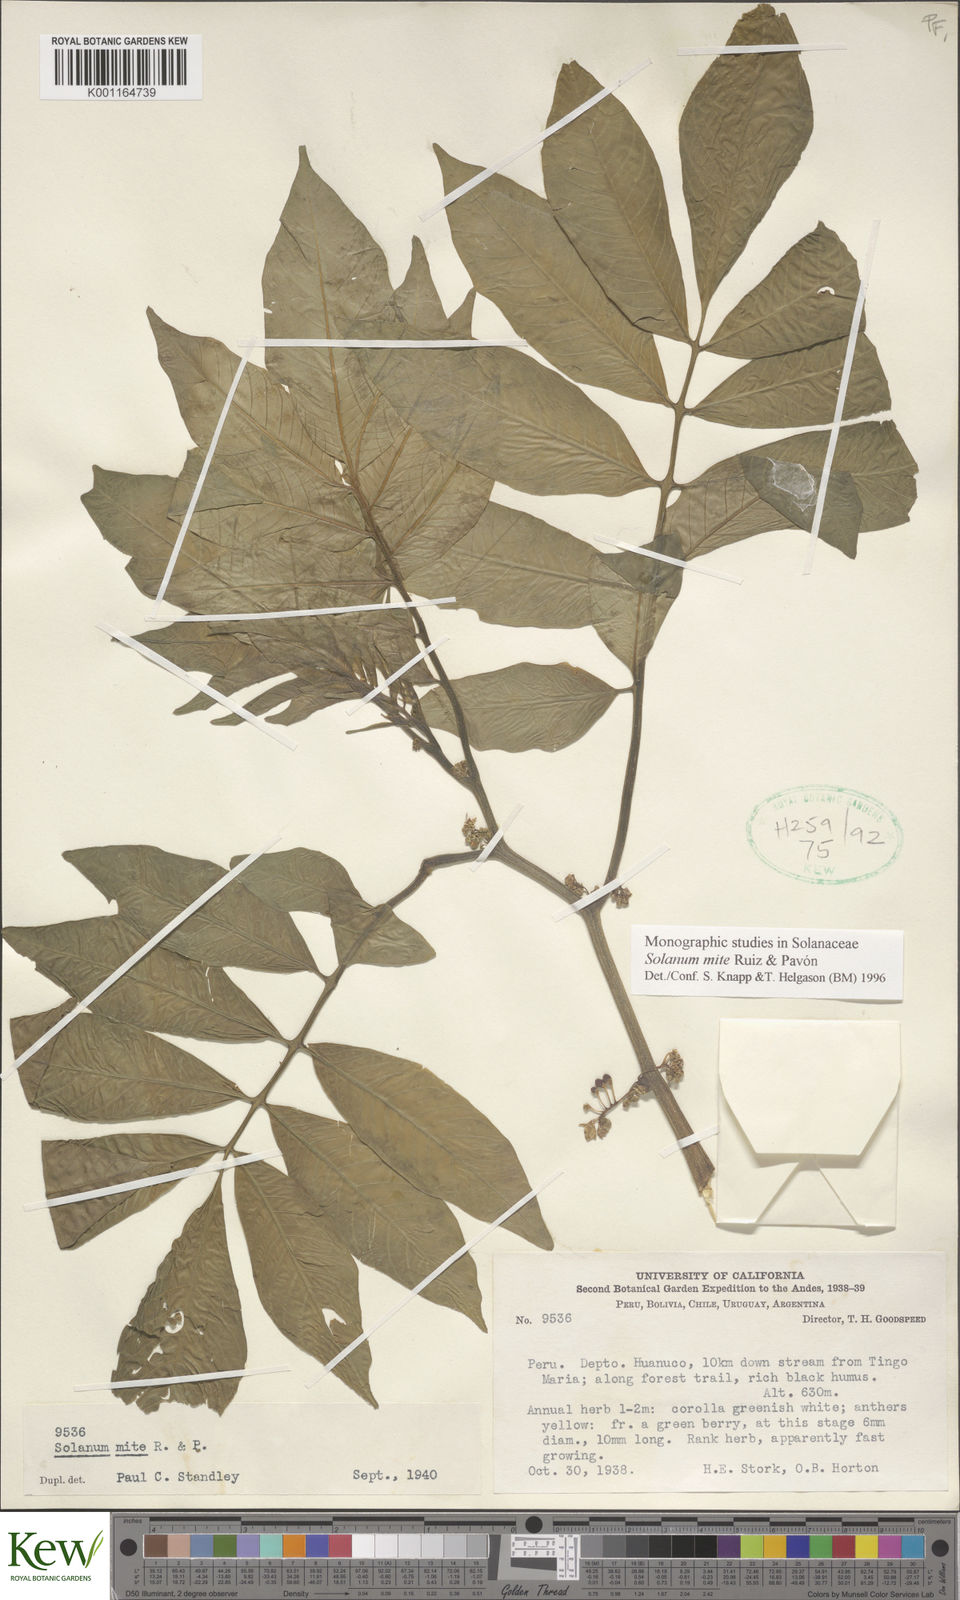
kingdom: Plantae
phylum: Tracheophyta
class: Magnoliopsida
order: Solanales
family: Solanaceae
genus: Solanum
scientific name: Solanum mite
